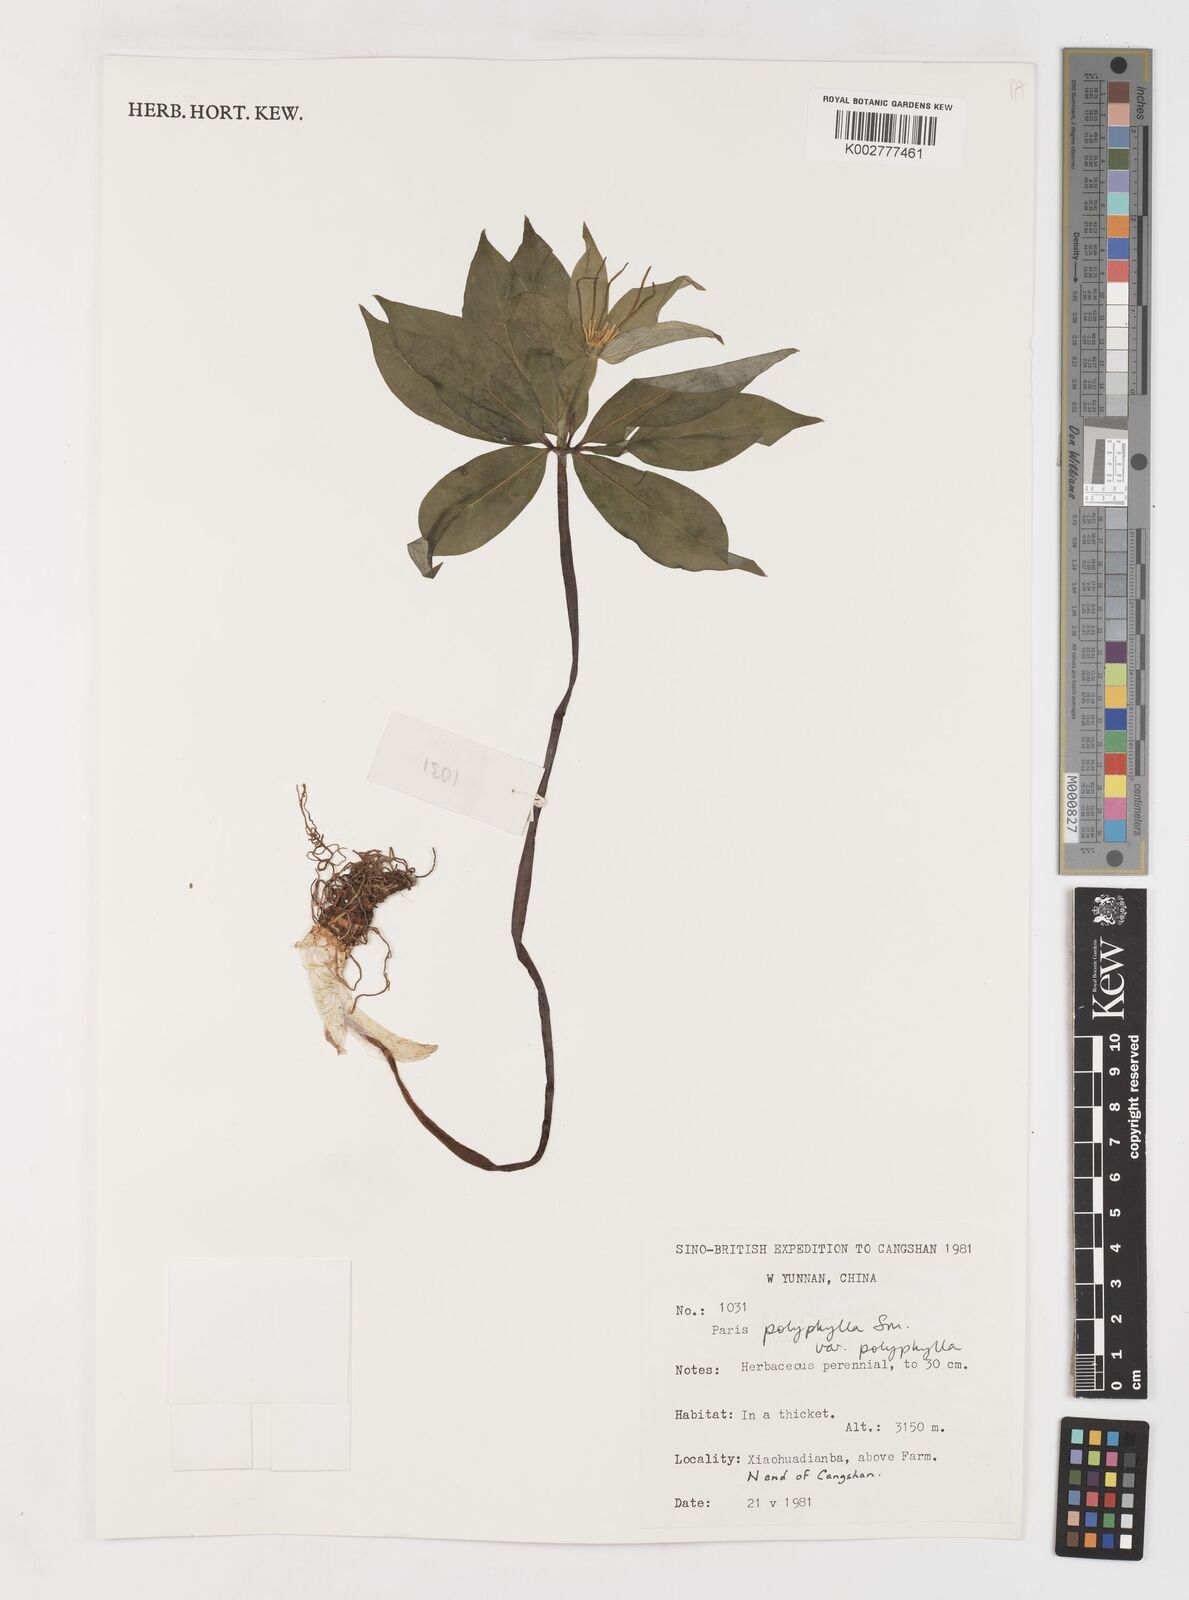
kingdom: Plantae
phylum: Tracheophyta
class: Liliopsida
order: Liliales
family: Melanthiaceae
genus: Paris
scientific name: Paris polyphylla
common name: Love apple
